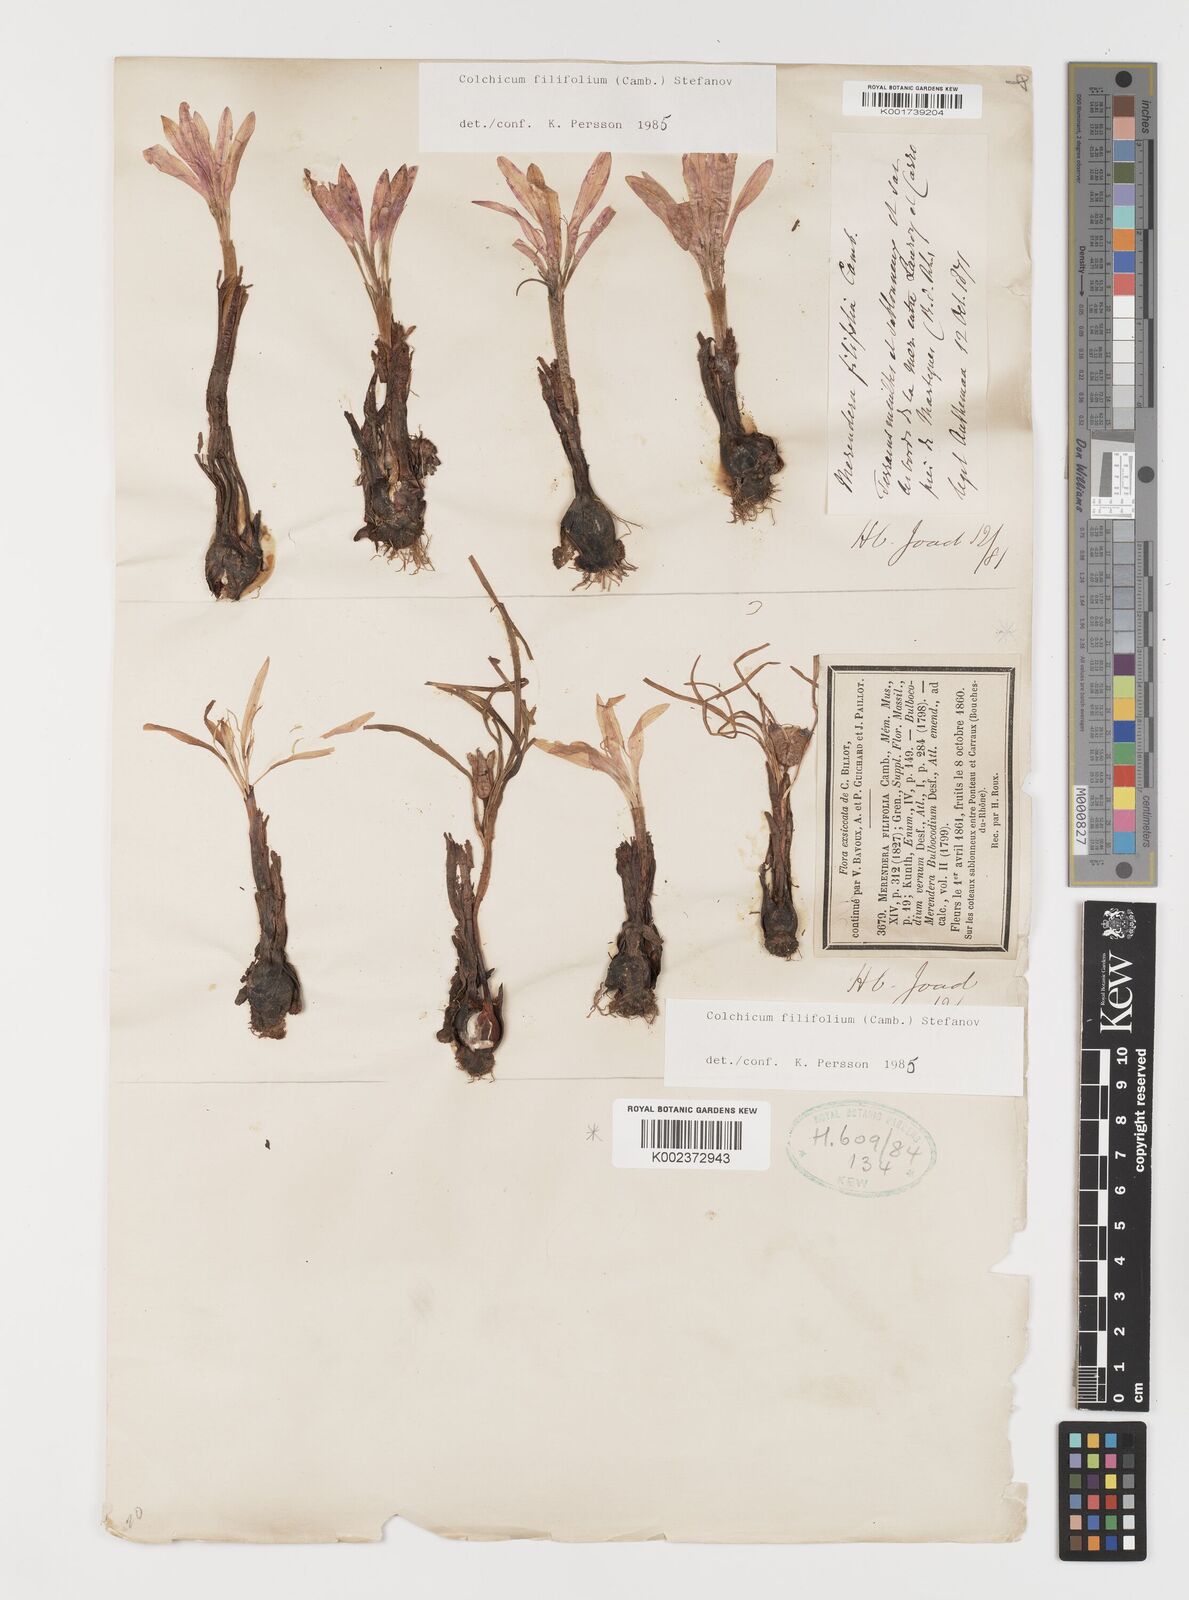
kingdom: Plantae
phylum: Tracheophyta
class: Liliopsida
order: Liliales
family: Colchicaceae
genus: Colchicum
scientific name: Colchicum filifolium
